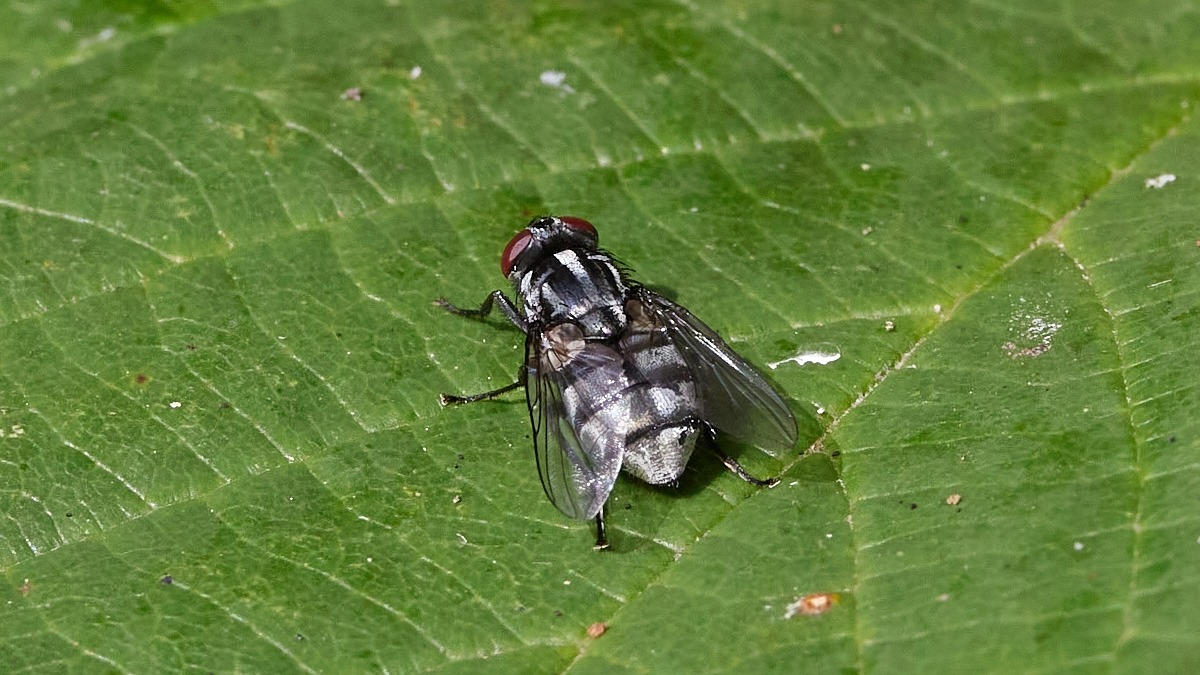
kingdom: Animalia
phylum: Arthropoda
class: Insecta
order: Diptera
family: Muscidae
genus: Morellia
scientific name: Morellia
